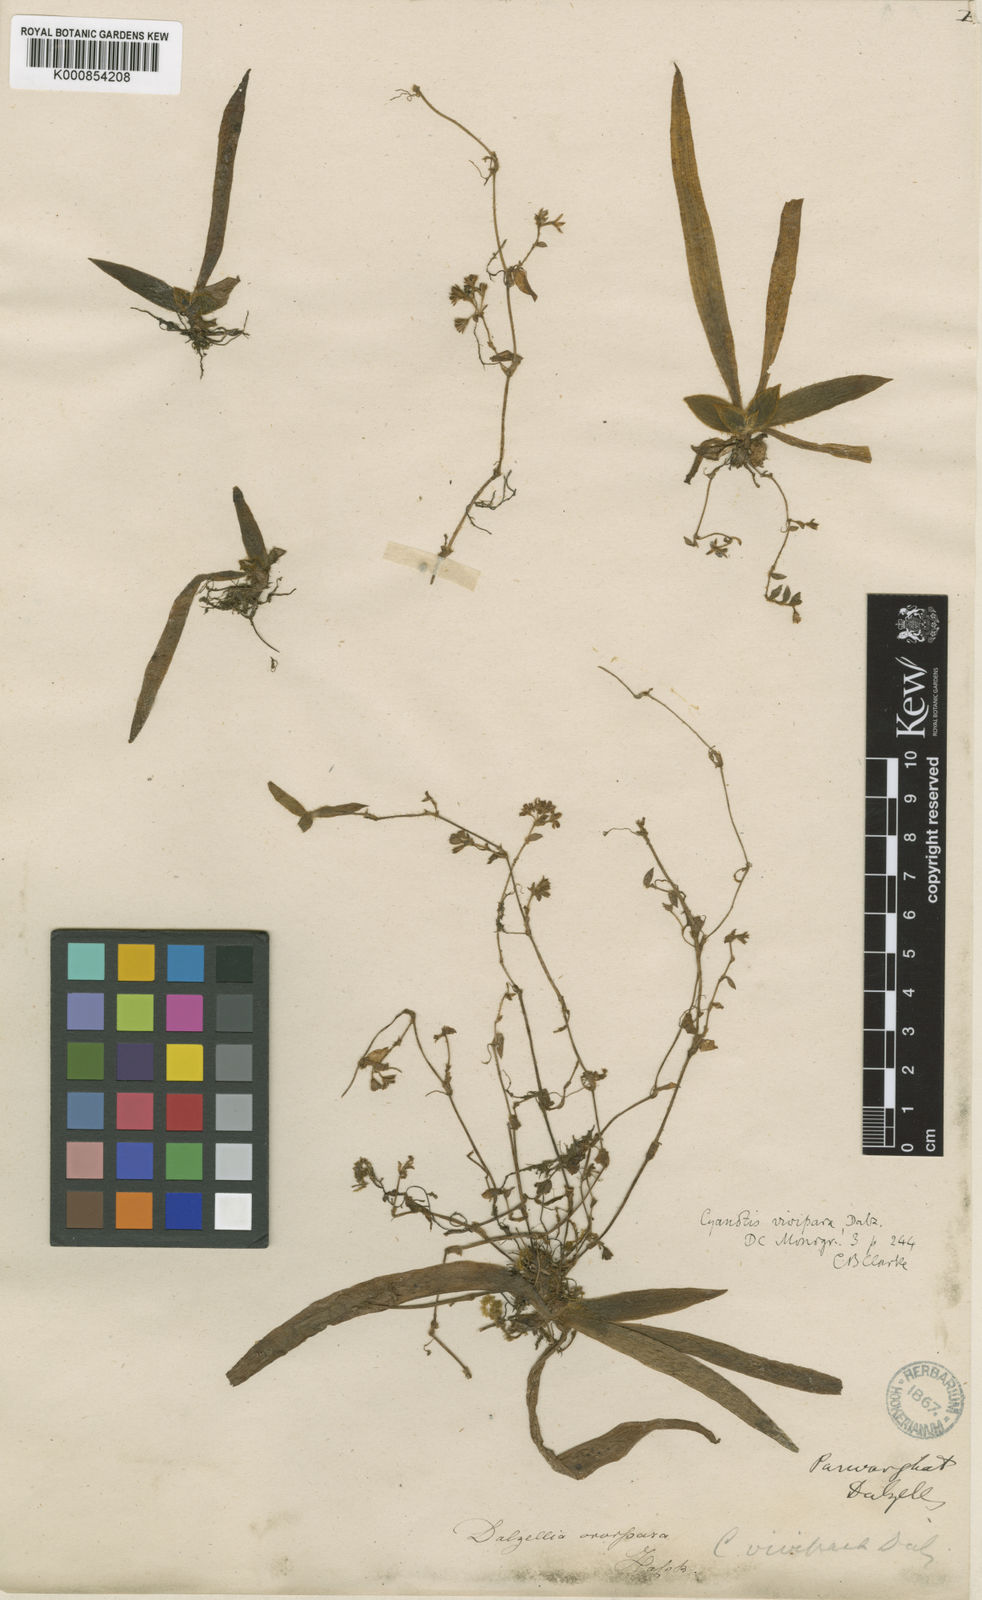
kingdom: Plantae
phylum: Tracheophyta
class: Liliopsida
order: Commelinales
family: Commelinaceae
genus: Cyanotis
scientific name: Cyanotis vivipara
